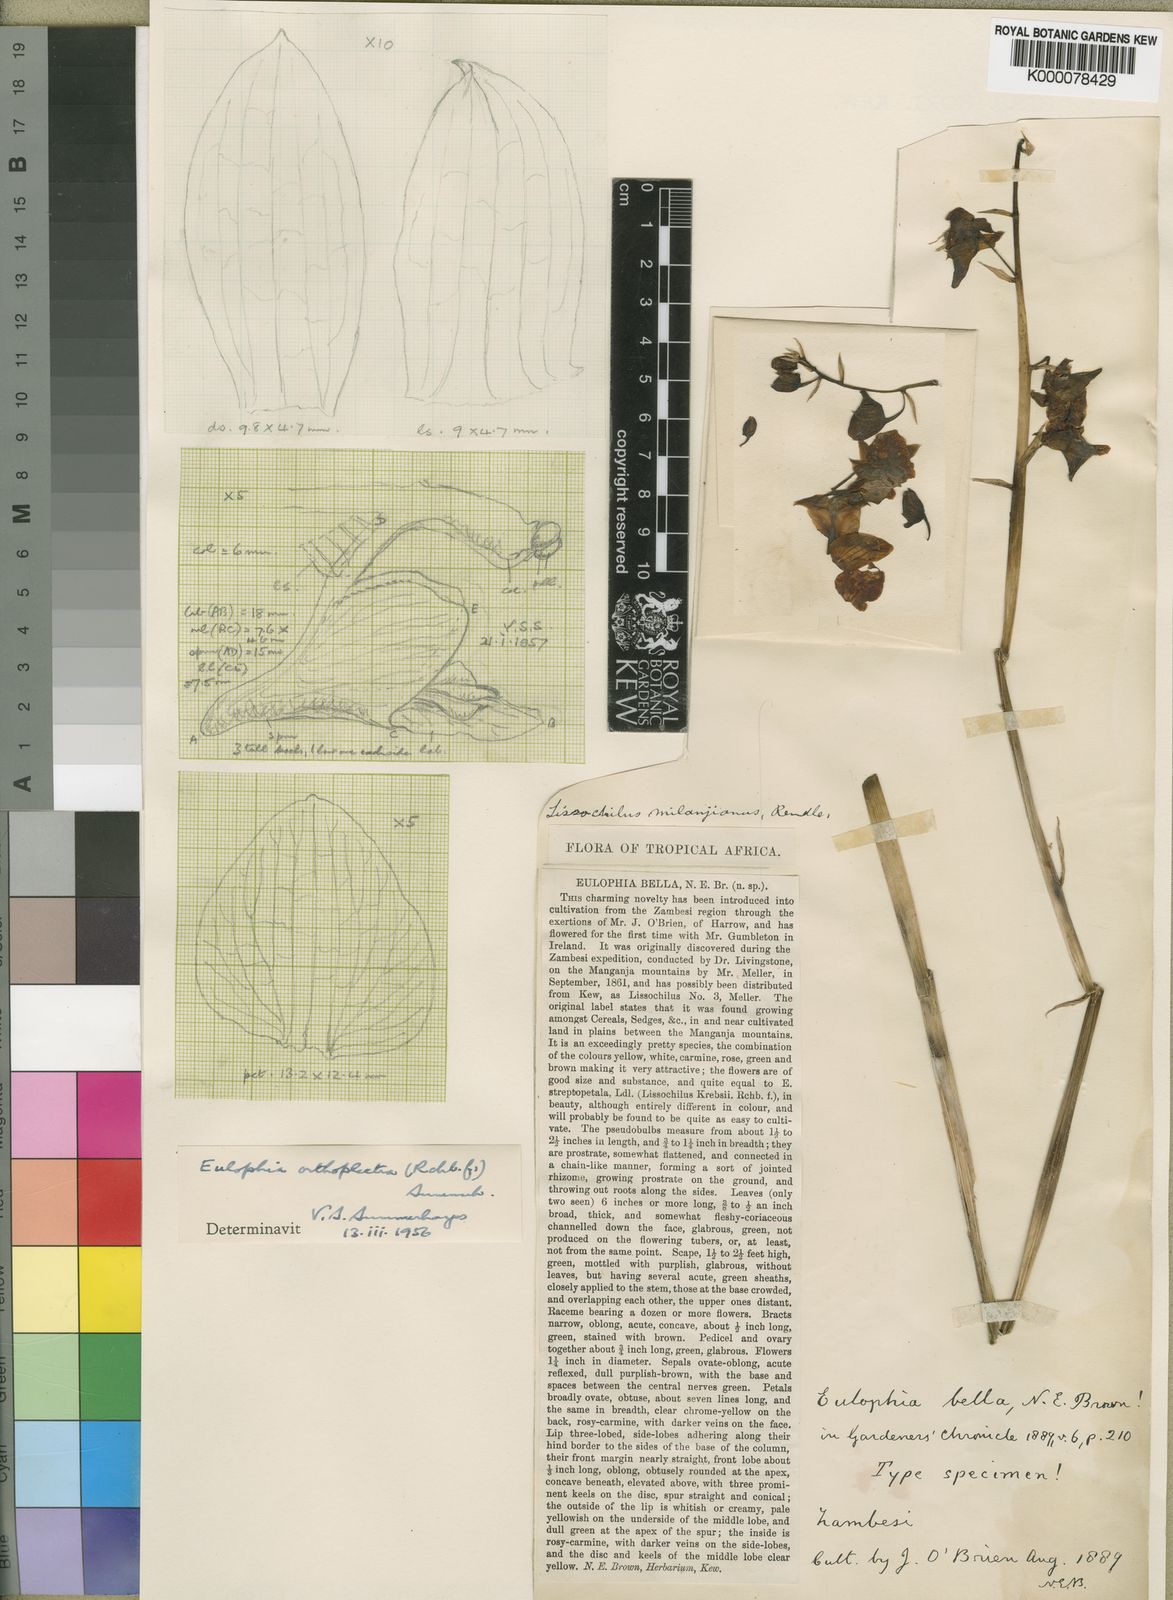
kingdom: Plantae
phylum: Tracheophyta
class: Liliopsida
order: Asparagales
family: Orchidaceae
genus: Eulophia
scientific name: Eulophia orthoplectra
